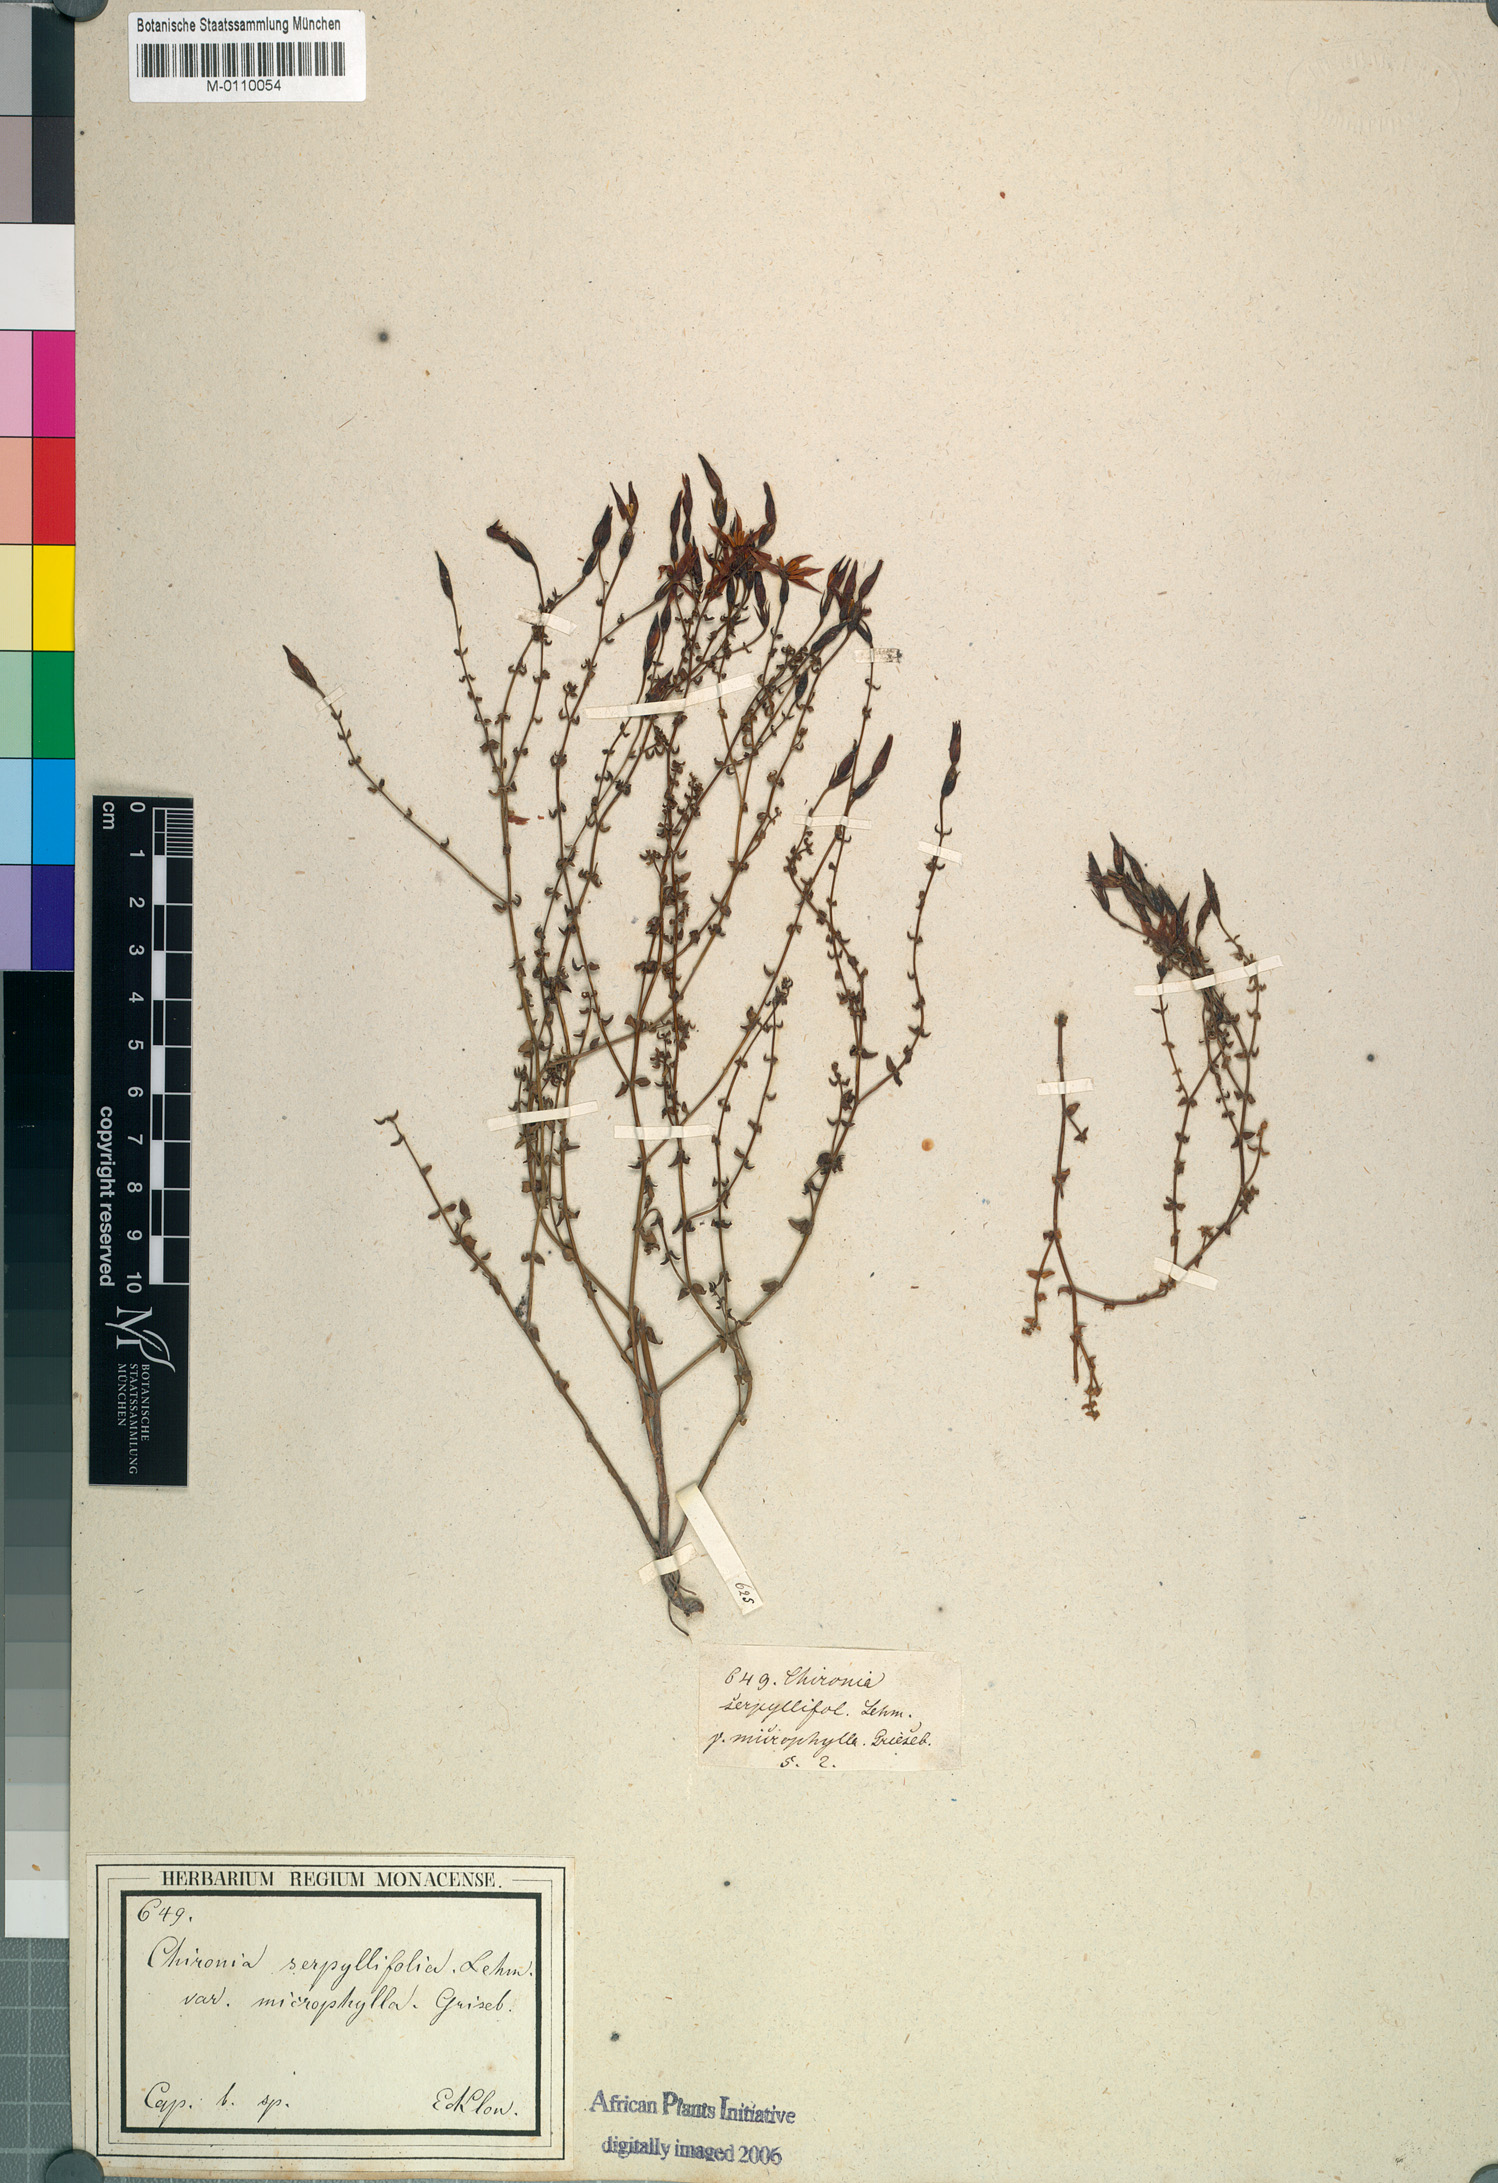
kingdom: Plantae
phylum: Tracheophyta
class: Magnoliopsida
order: Gentianales
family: Gentianaceae
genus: Chironia
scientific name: Chironia serpyllifolia
